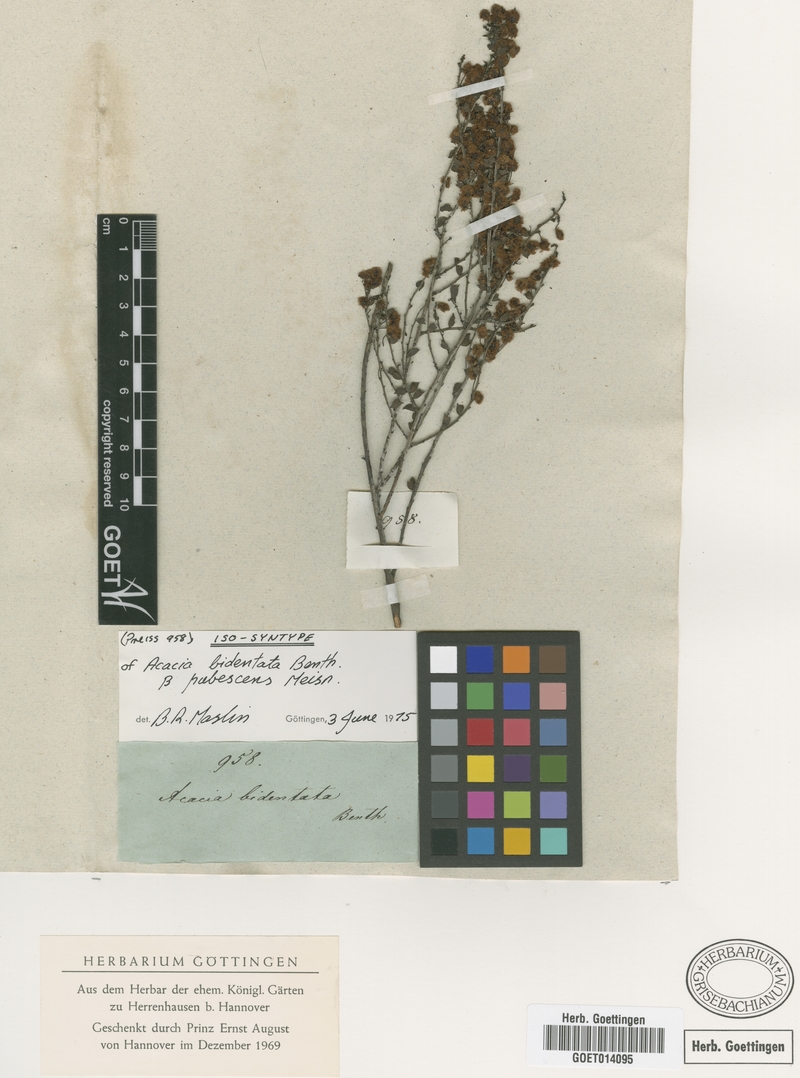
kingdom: Plantae
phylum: Tracheophyta
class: Magnoliopsida
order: Fabales
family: Fabaceae
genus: Acacia
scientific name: Acacia bidentata
